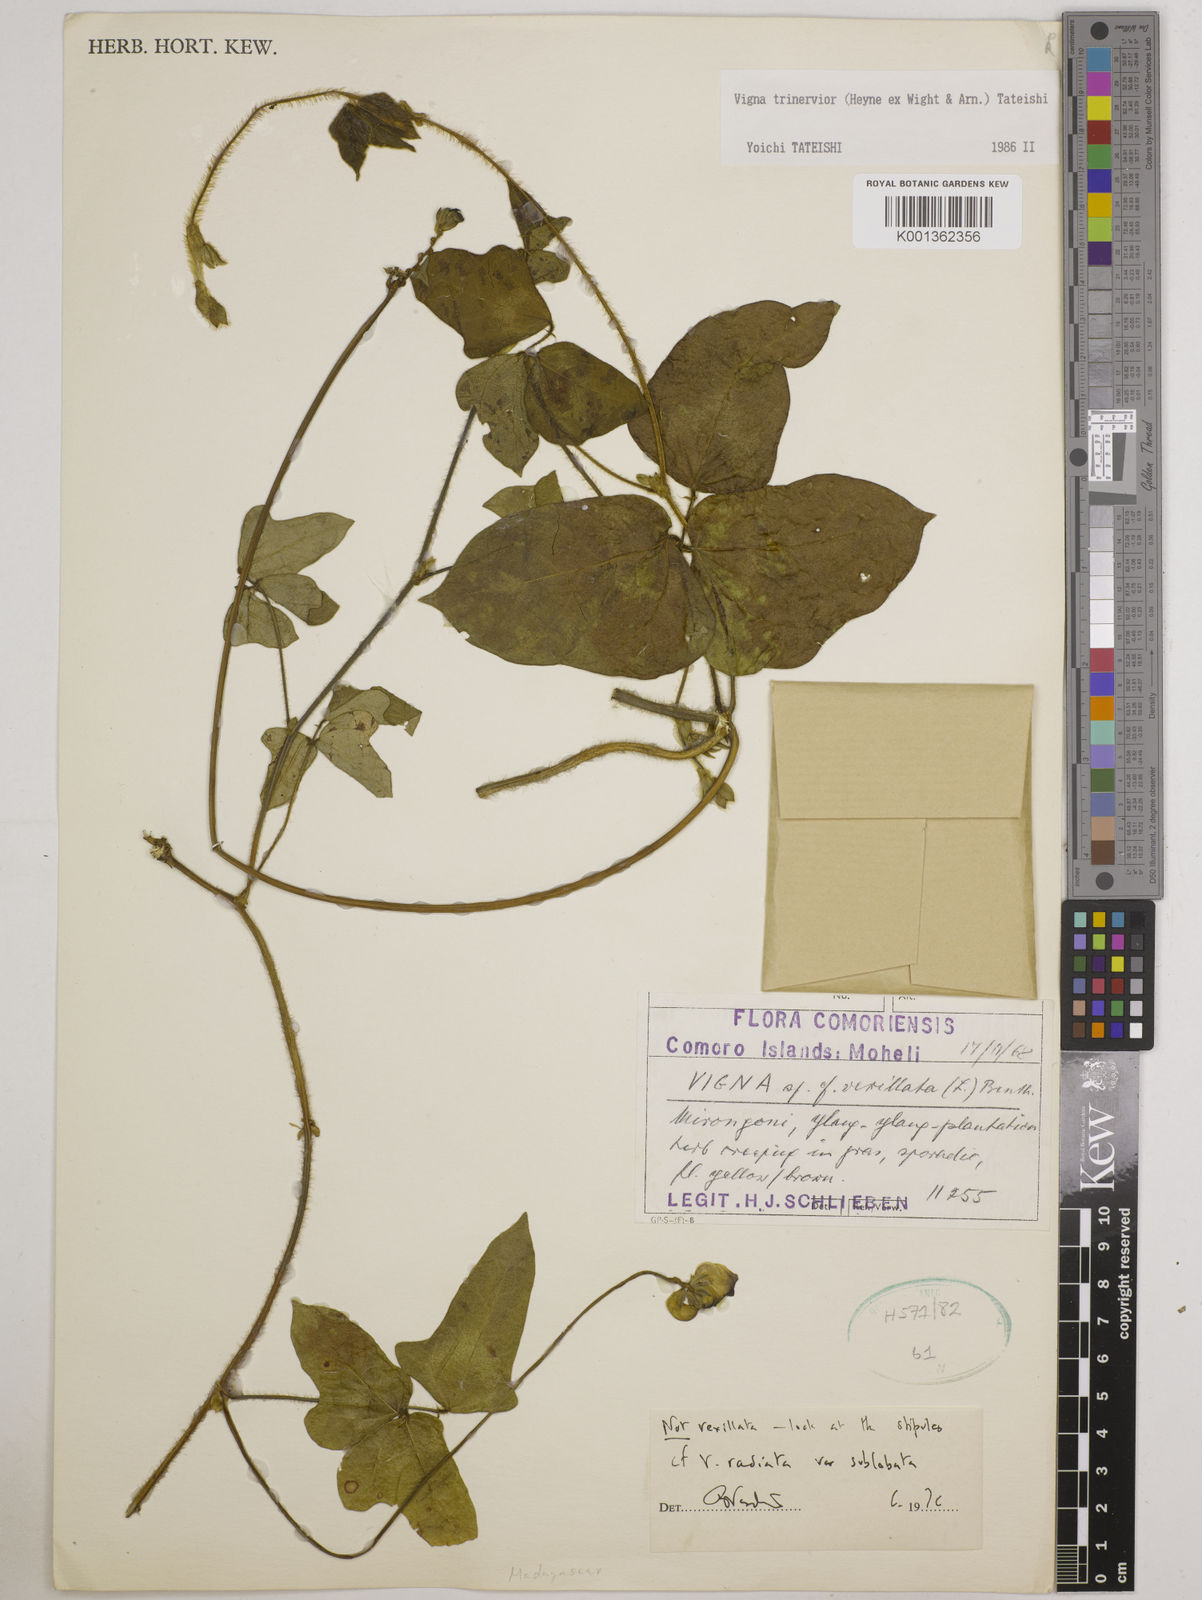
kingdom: Plantae
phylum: Tracheophyta
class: Magnoliopsida
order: Fabales
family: Fabaceae
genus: Vigna
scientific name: Vigna radiata
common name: Mung-bean
